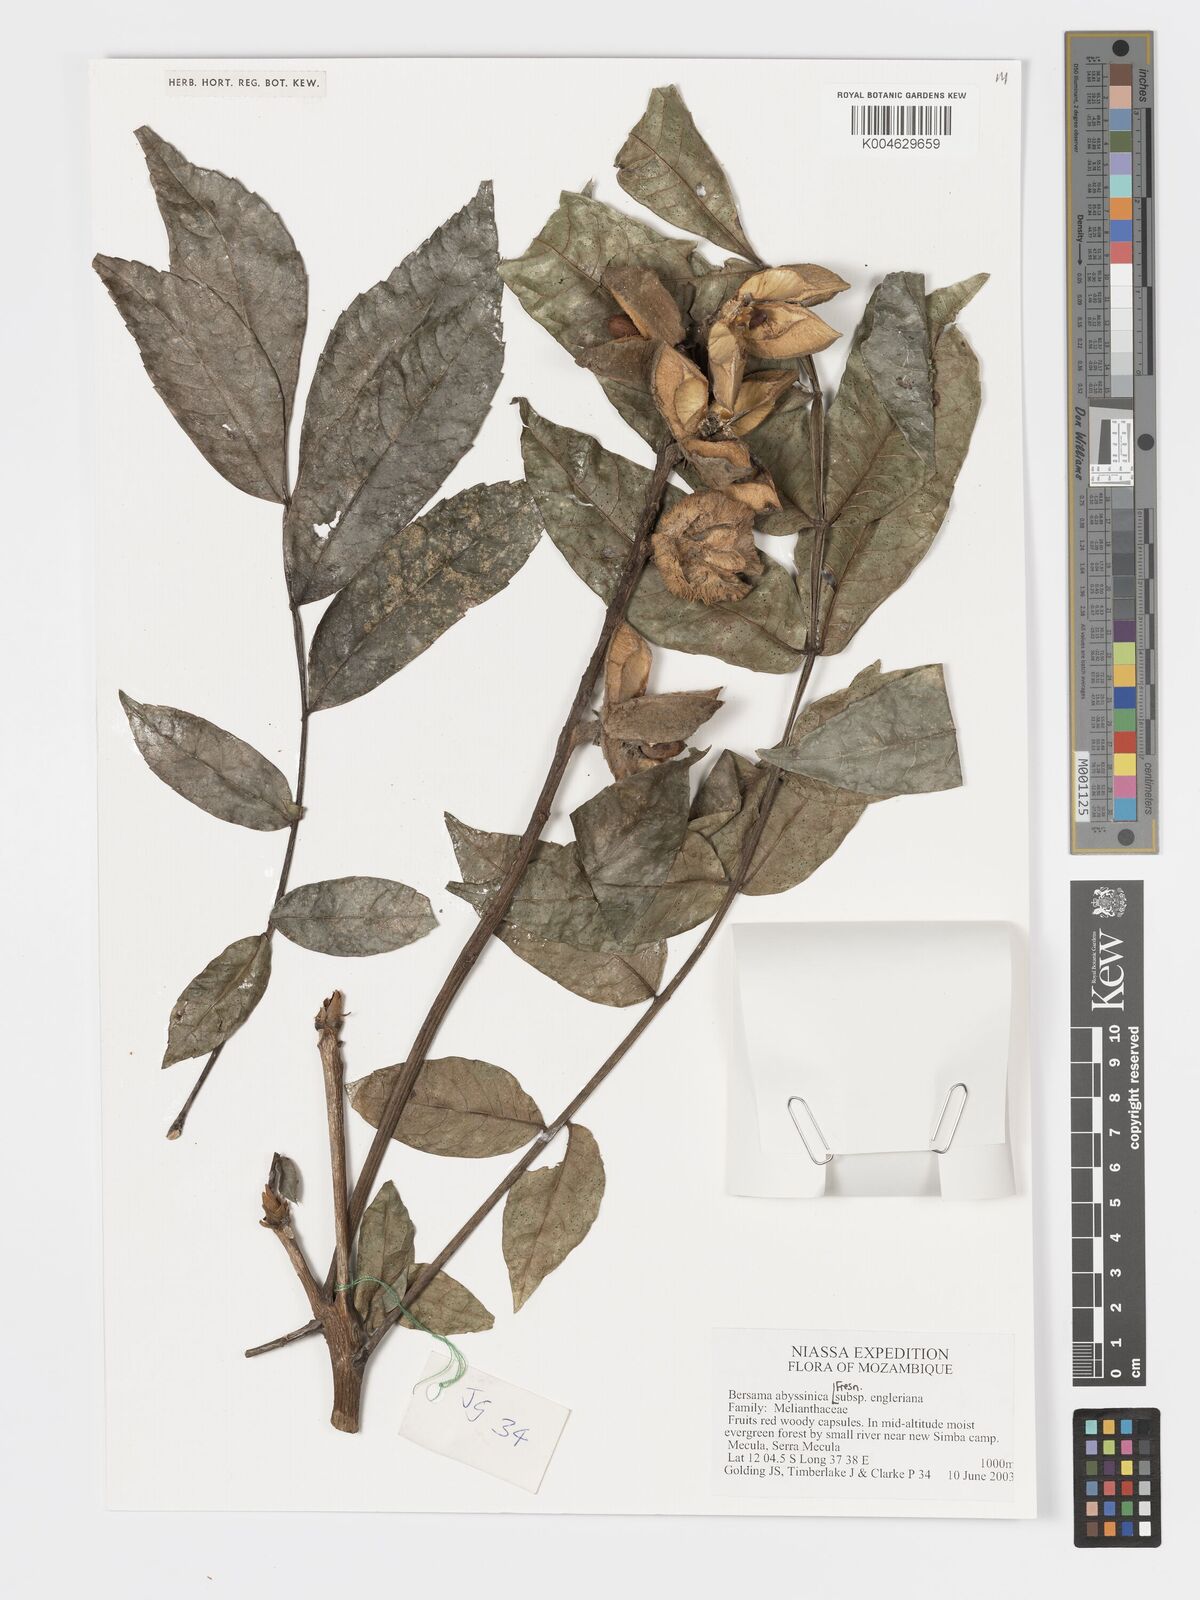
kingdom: Plantae
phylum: Tracheophyta
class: Magnoliopsida
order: Geraniales
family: Melianthaceae
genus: Bersama
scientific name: Bersama abyssinica
